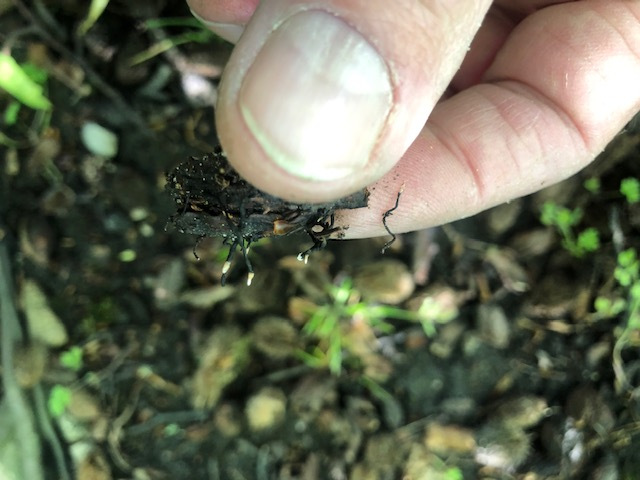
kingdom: Fungi
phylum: Ascomycota
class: Sordariomycetes
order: Xylariales
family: Xylariaceae
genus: Xylaria
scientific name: Xylaria carpophila
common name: bogskål-stødsvamp
